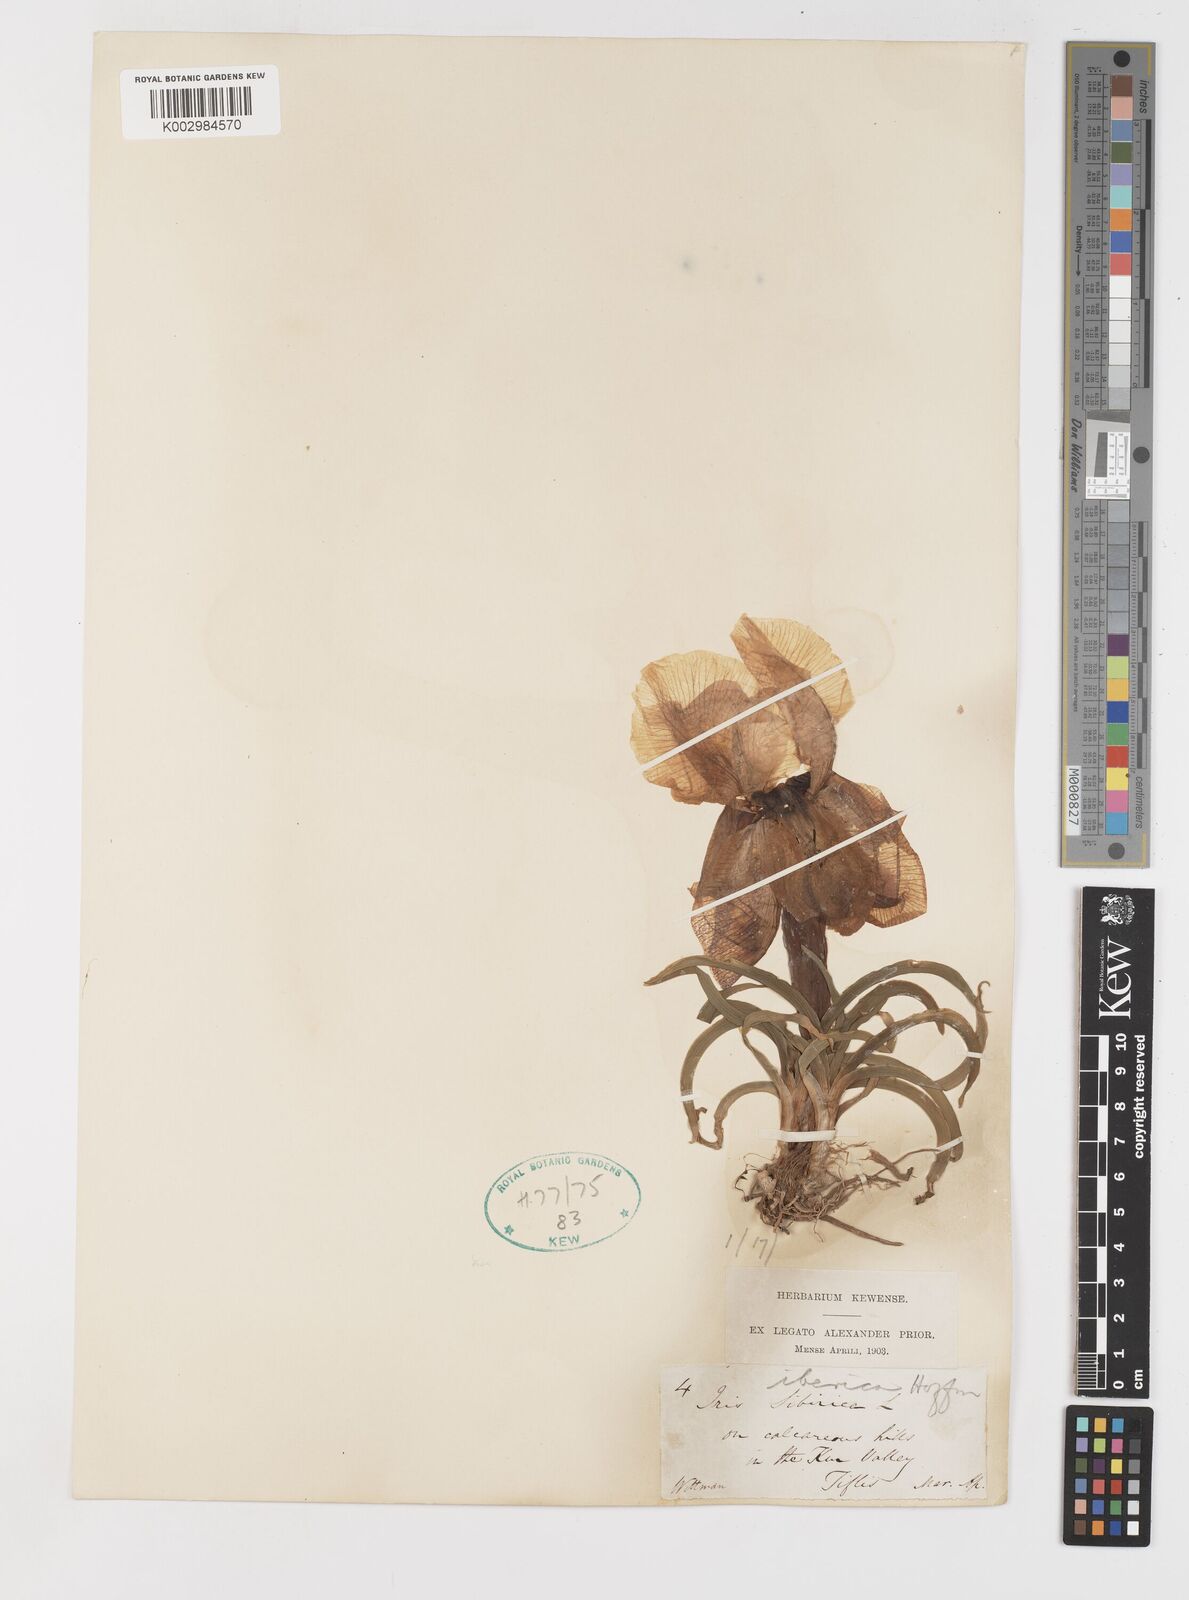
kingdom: Plantae
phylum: Tracheophyta
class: Liliopsida
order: Asparagales
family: Iridaceae
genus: Iris
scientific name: Iris iberica
